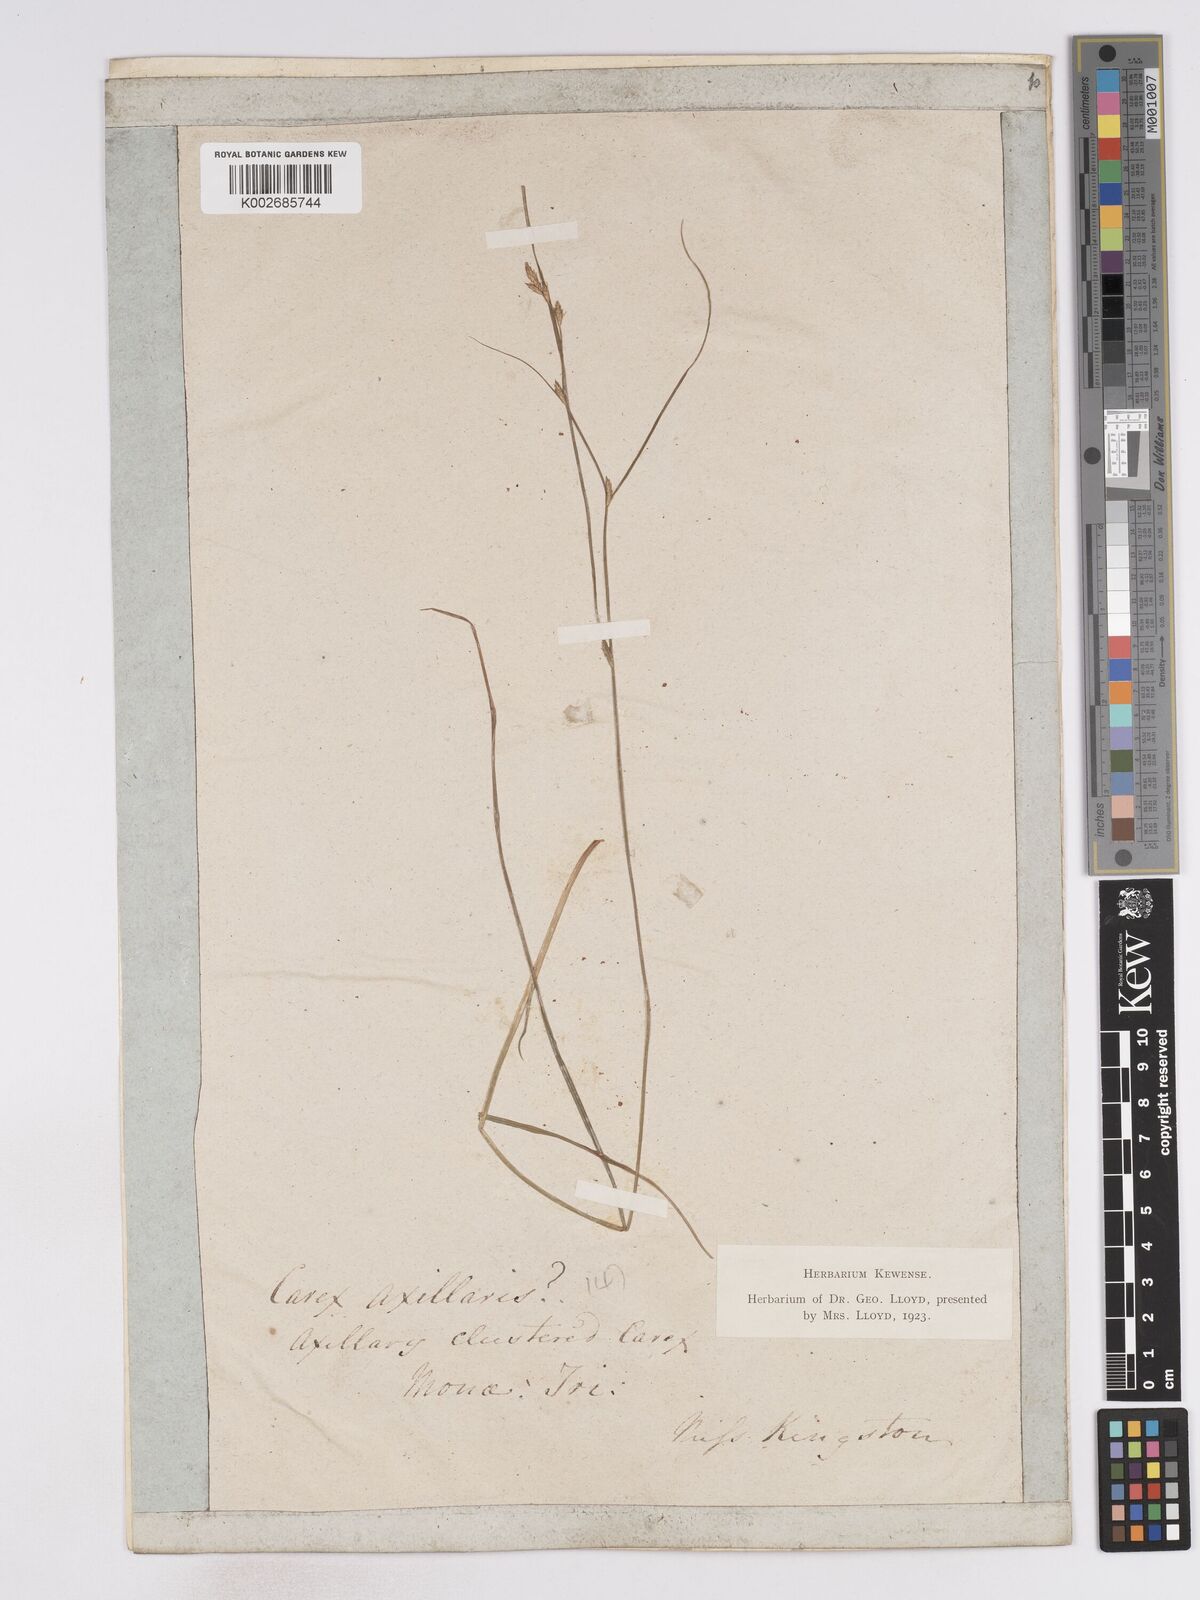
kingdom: Plantae
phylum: Tracheophyta
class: Liliopsida
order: Poales
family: Cyperaceae
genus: Carex
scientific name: Carex remota
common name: Remote sedge
